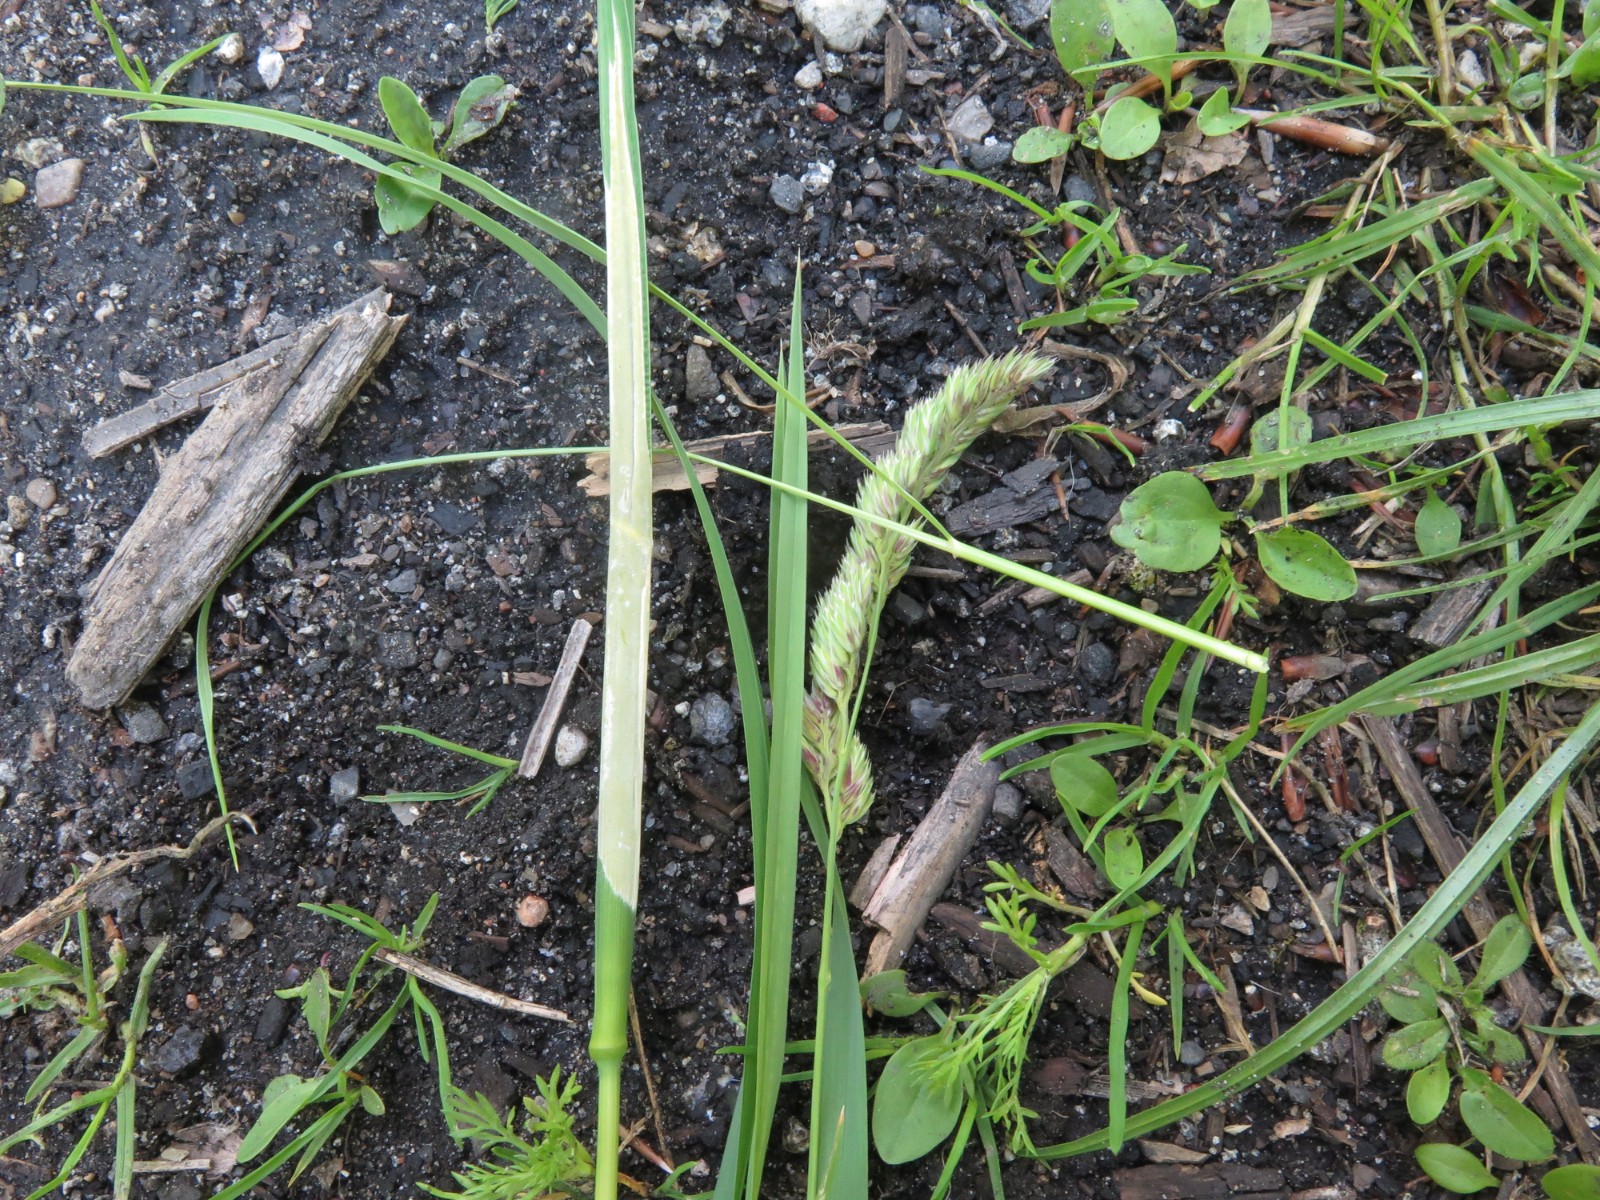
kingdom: Fungi
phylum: Ascomycota
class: Sordariomycetes
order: Hypocreales
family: Clavicipitaceae
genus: Epichloe
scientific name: Epichloe typhina
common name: almindelig kernerør
